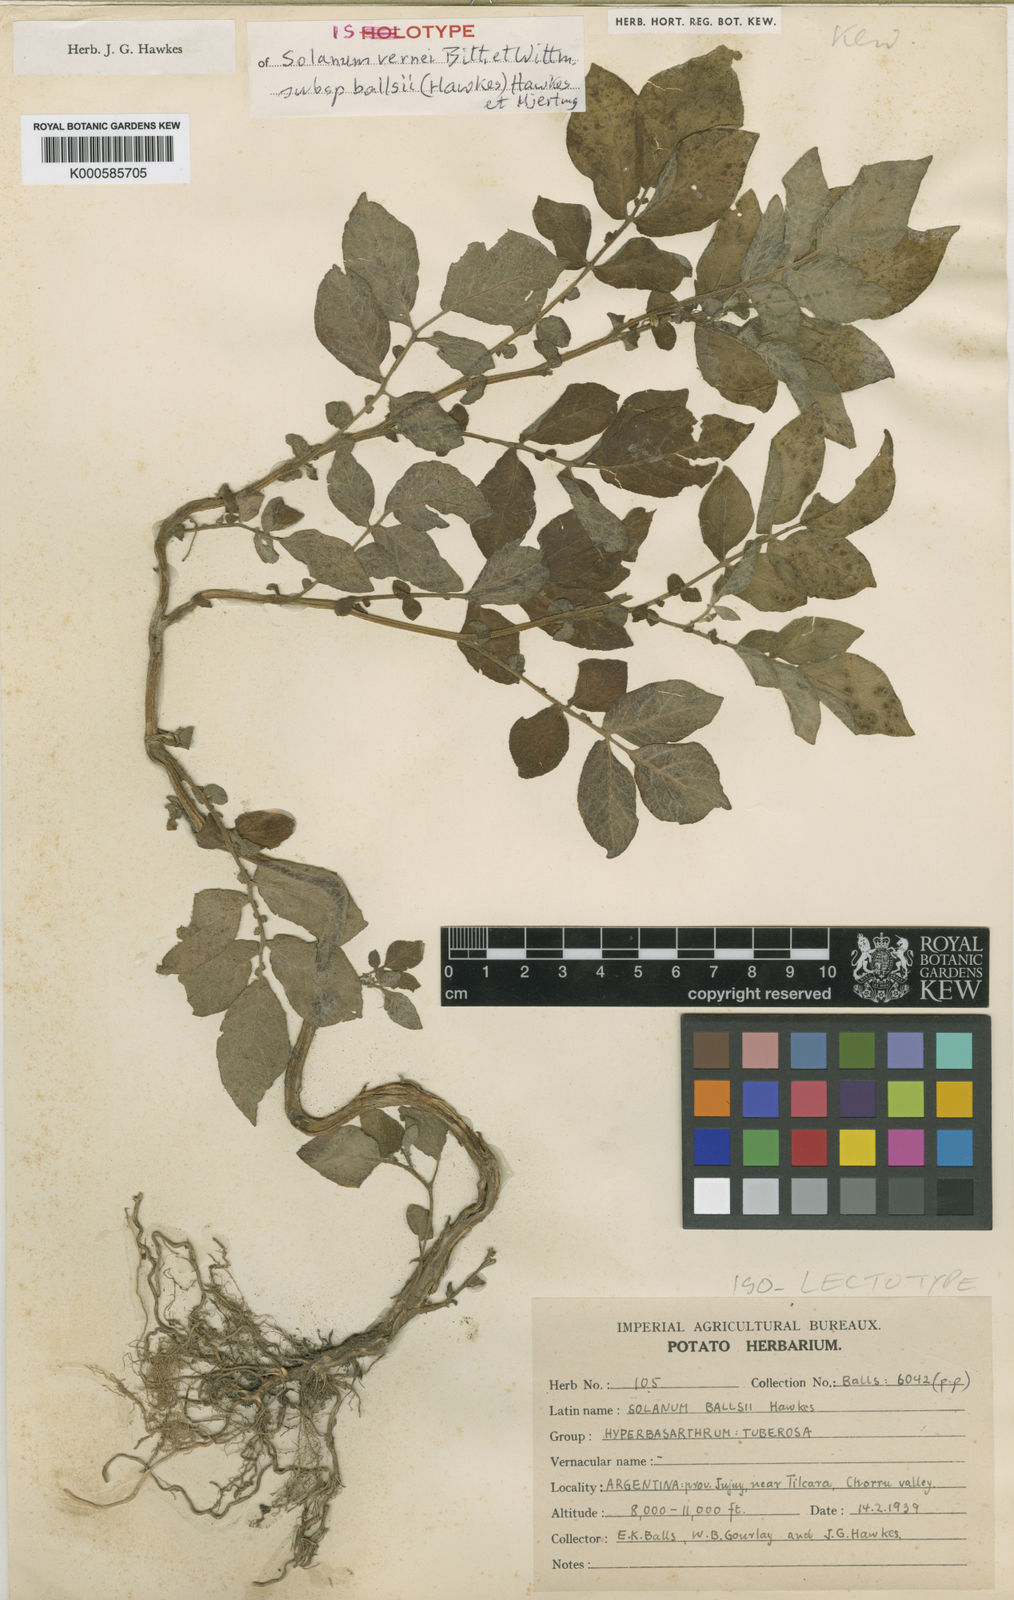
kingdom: Plantae
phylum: Tracheophyta
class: Magnoliopsida
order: Solanales
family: Solanaceae
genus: Solanum
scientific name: Solanum vernei
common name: Purple potato
